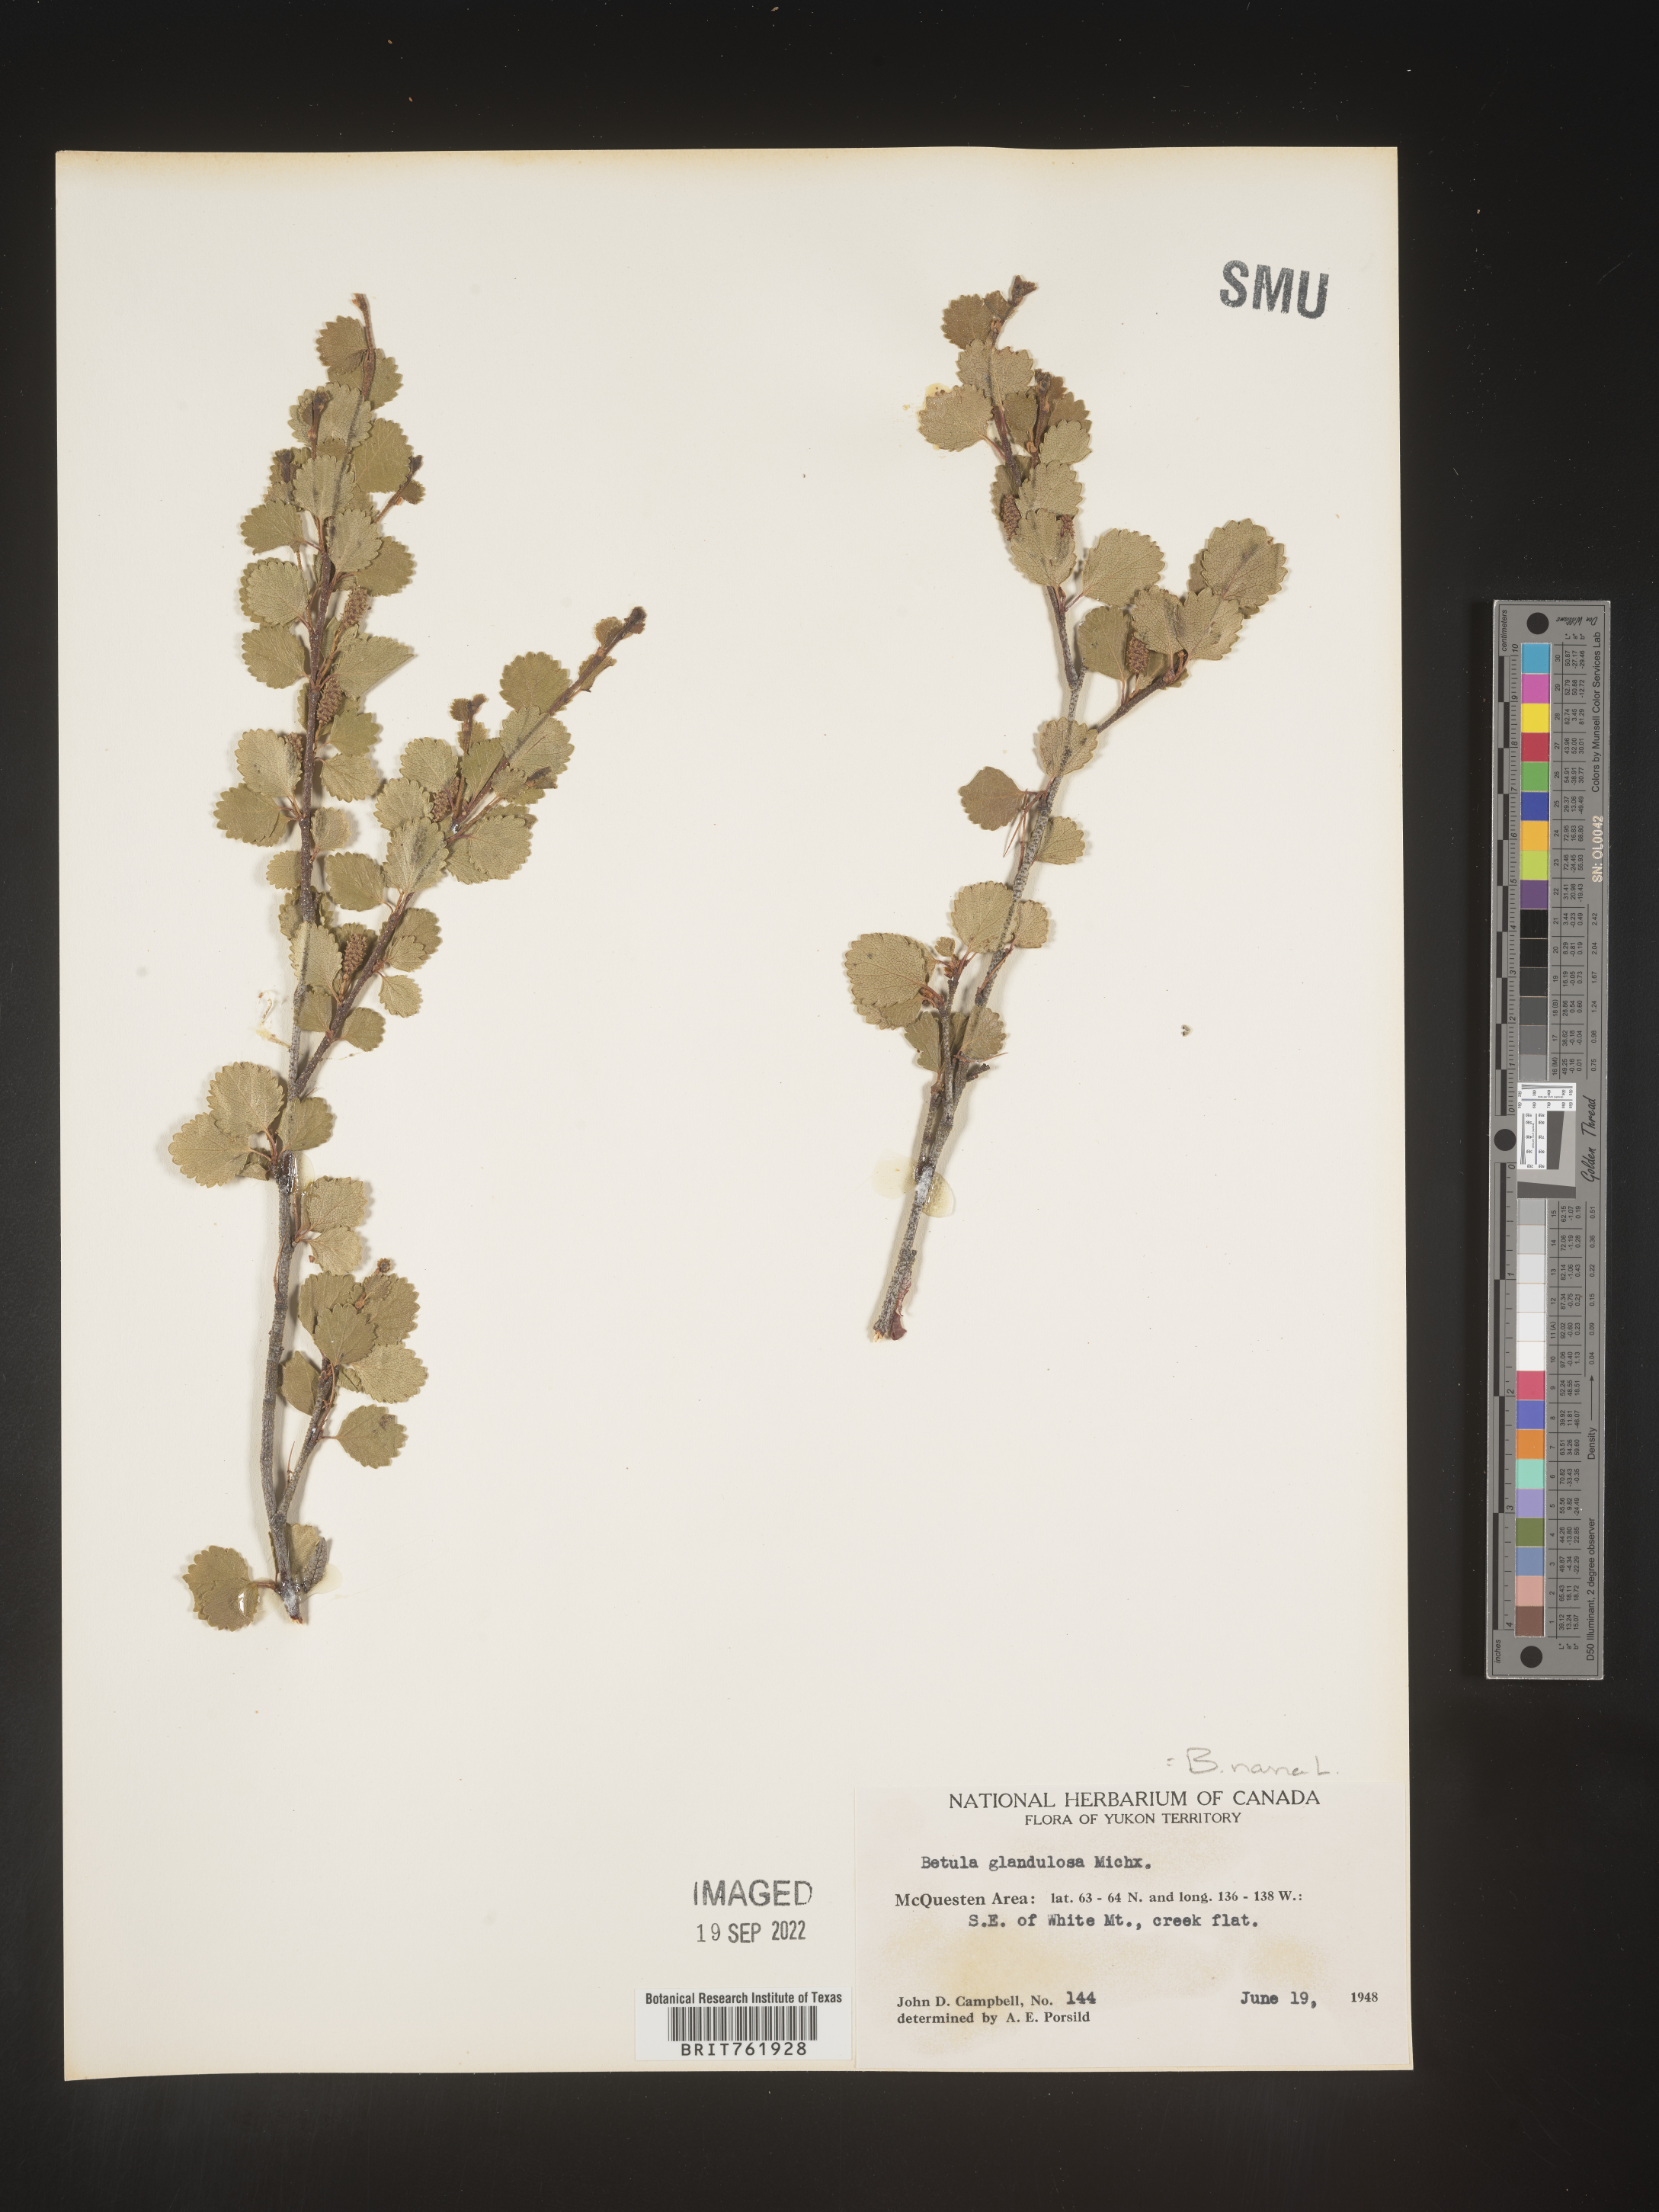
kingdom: Plantae
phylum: Tracheophyta
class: Magnoliopsida
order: Fagales
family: Betulaceae
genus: Betula
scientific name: Betula nana
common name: Arctic dwarf birch
